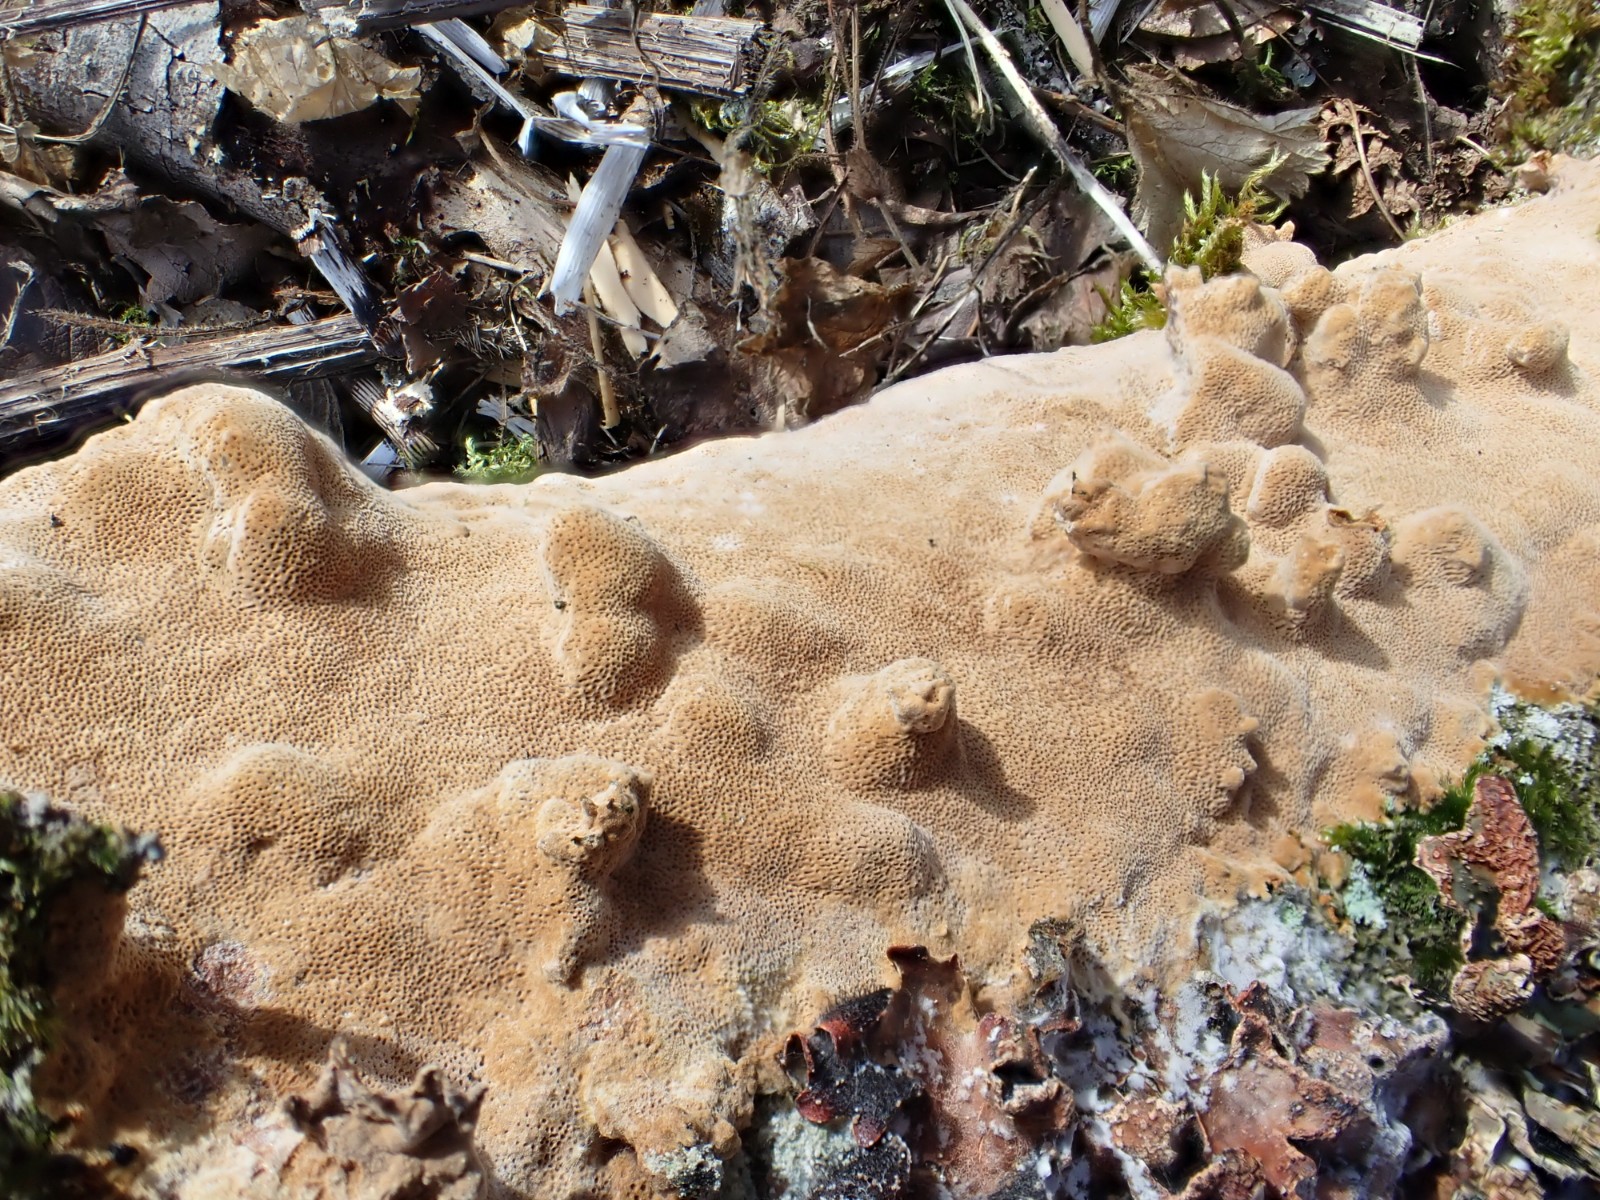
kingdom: Fungi
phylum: Basidiomycota
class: Agaricomycetes
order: Hymenochaetales
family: Hymenochaetaceae
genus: Fuscoporia
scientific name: Fuscoporia ferrea
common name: skorpe-ildporesvamp
